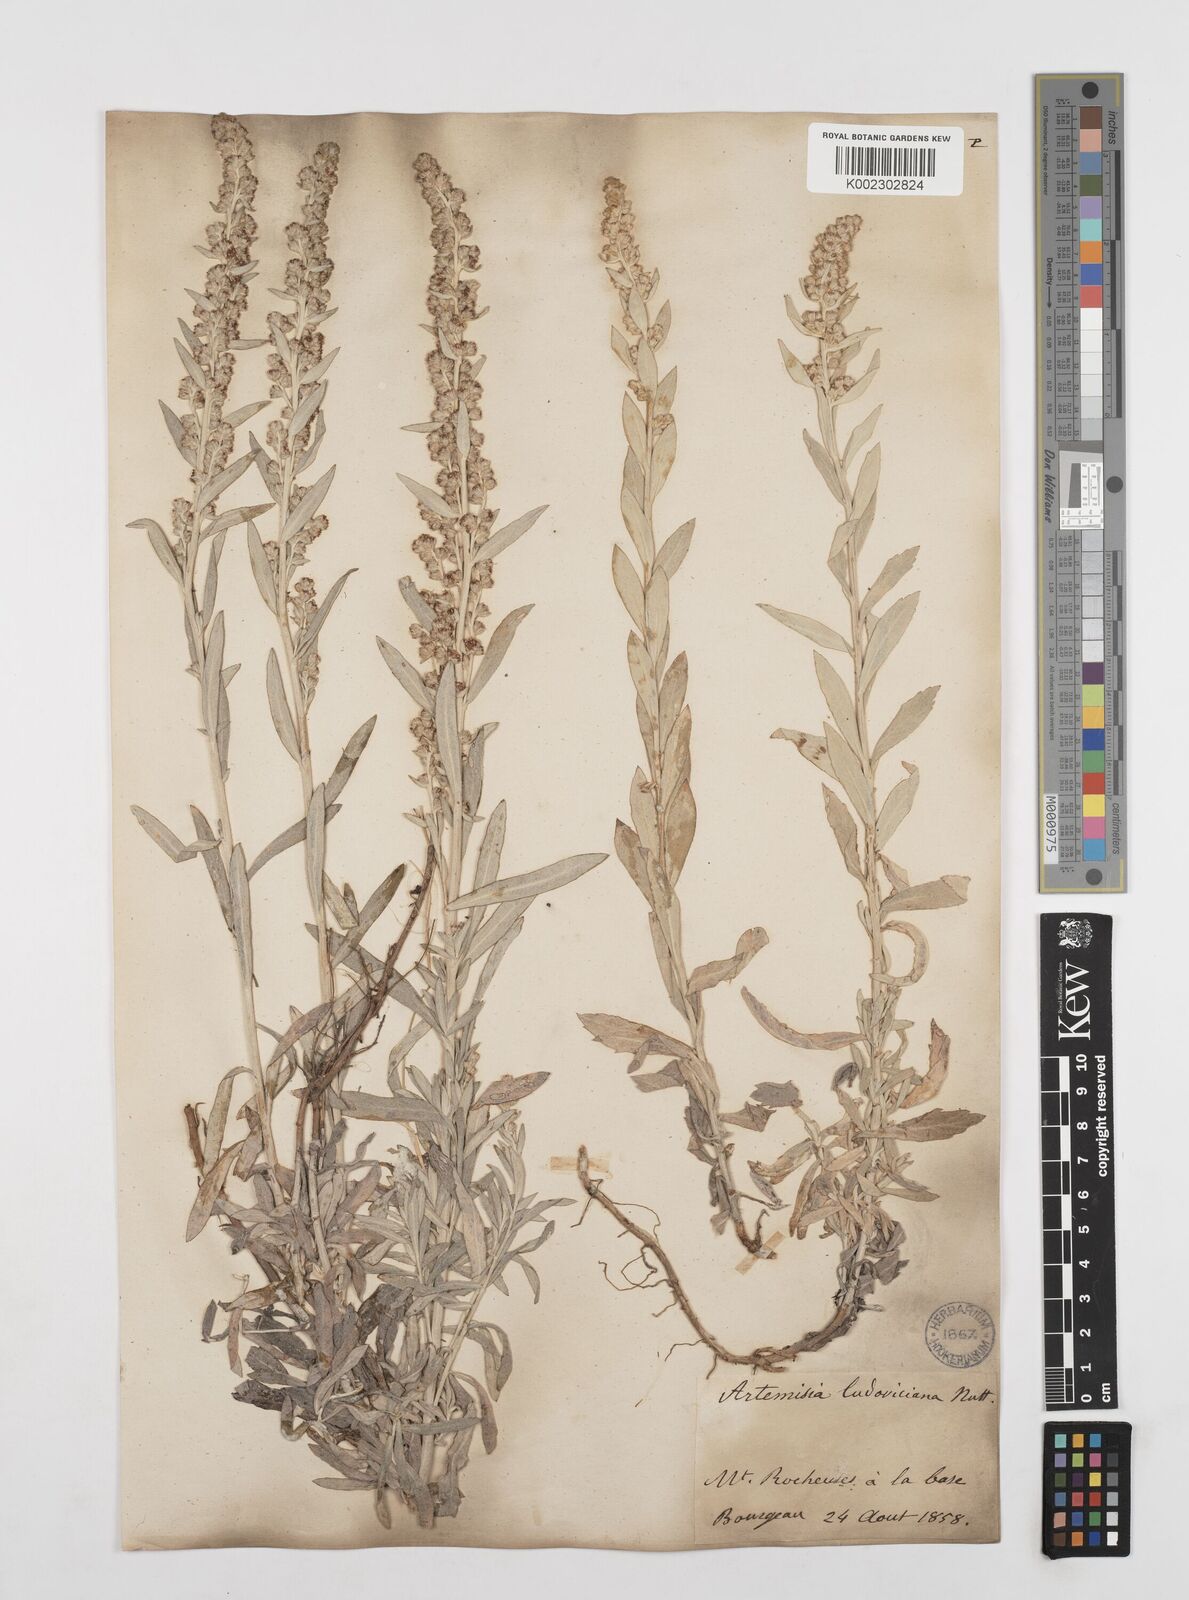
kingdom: Plantae
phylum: Tracheophyta
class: Magnoliopsida
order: Asterales
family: Asteraceae
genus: Artemisia
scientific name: Artemisia ludoviciana
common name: Western mugwort
